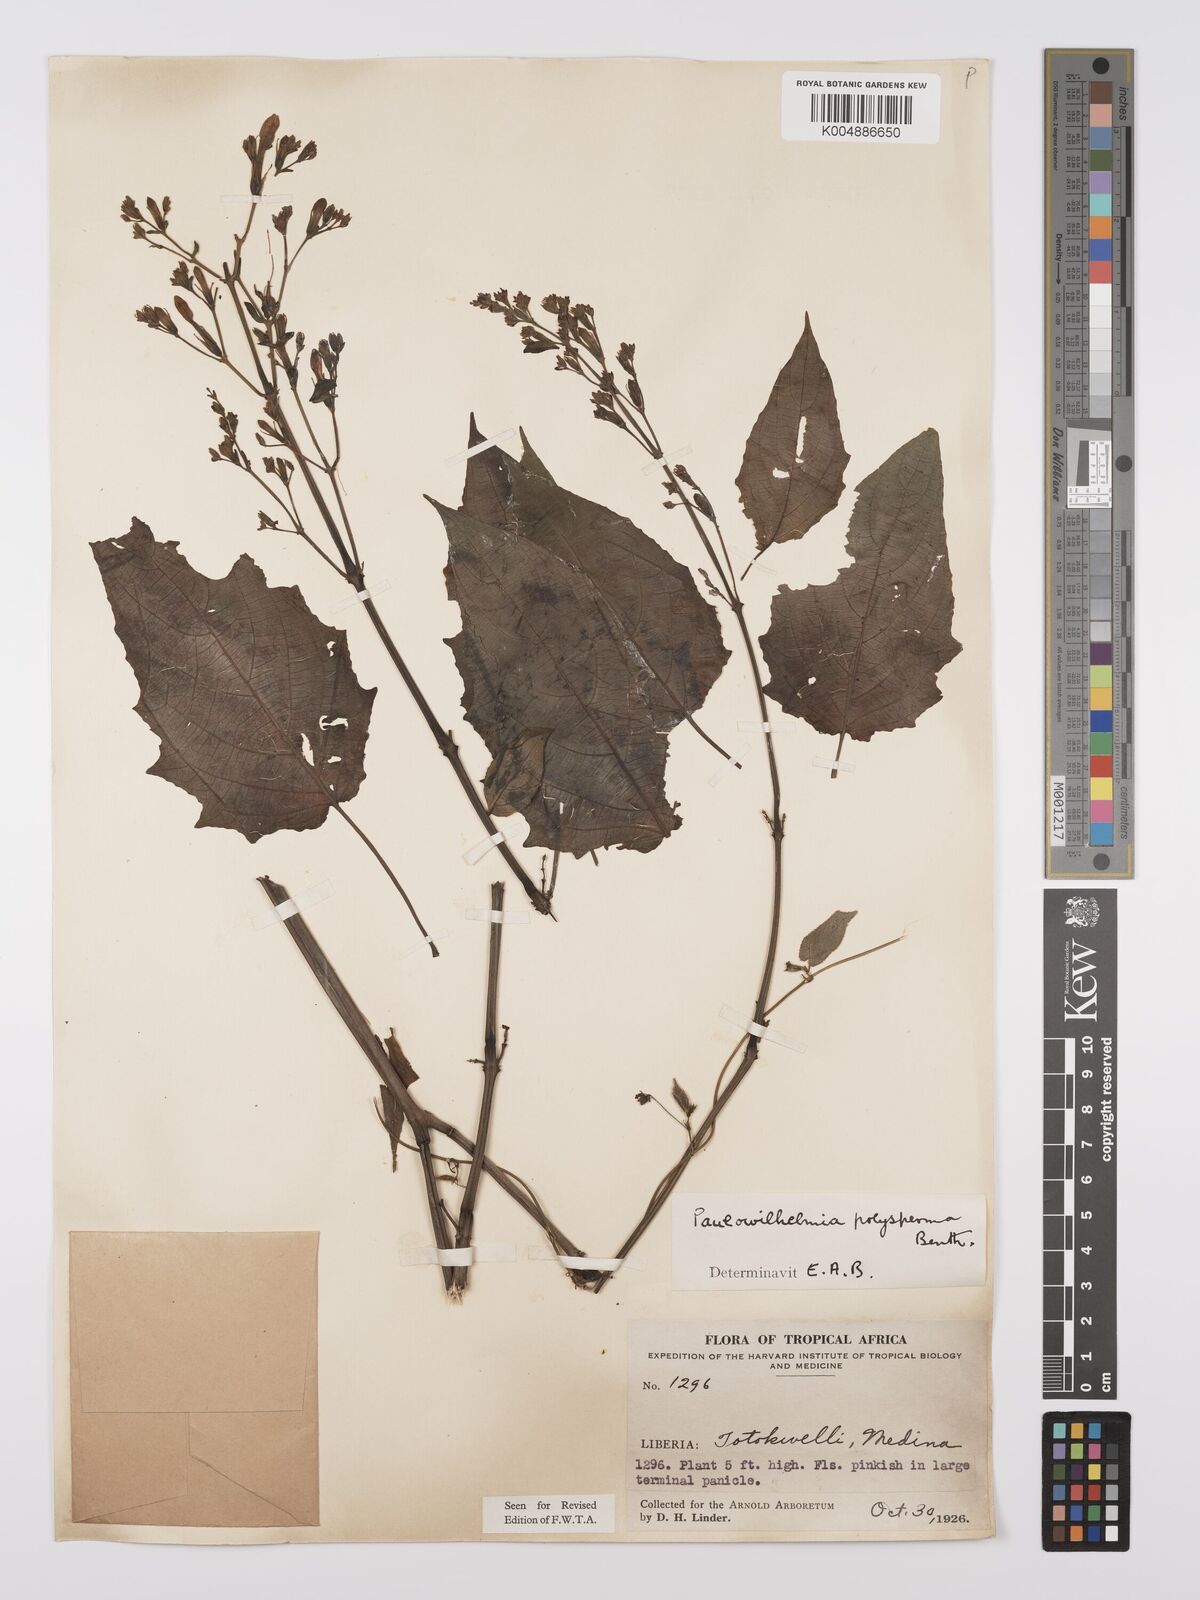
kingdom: Plantae
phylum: Tracheophyta
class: Magnoliopsida
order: Lamiales
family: Acanthaceae
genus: Eremomastax
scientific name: Eremomastax speciosa
